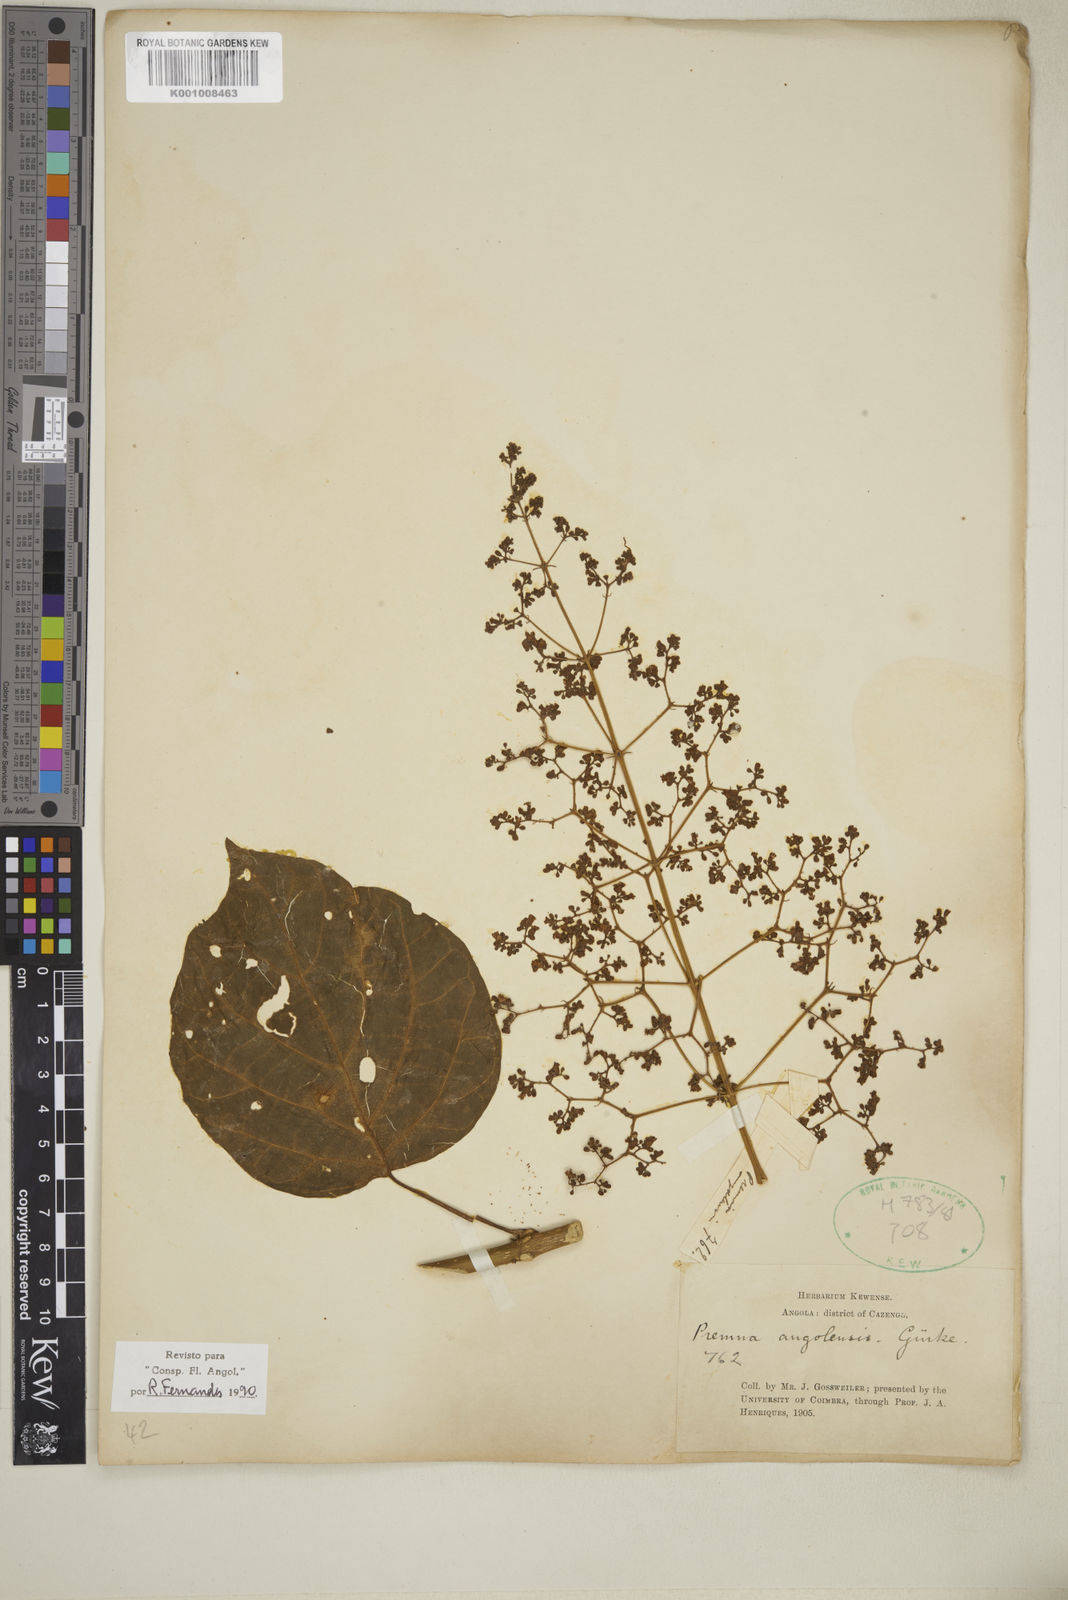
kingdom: Plantae
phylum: Tracheophyta
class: Magnoliopsida
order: Lamiales
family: Lamiaceae
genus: Premna
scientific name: Premna
